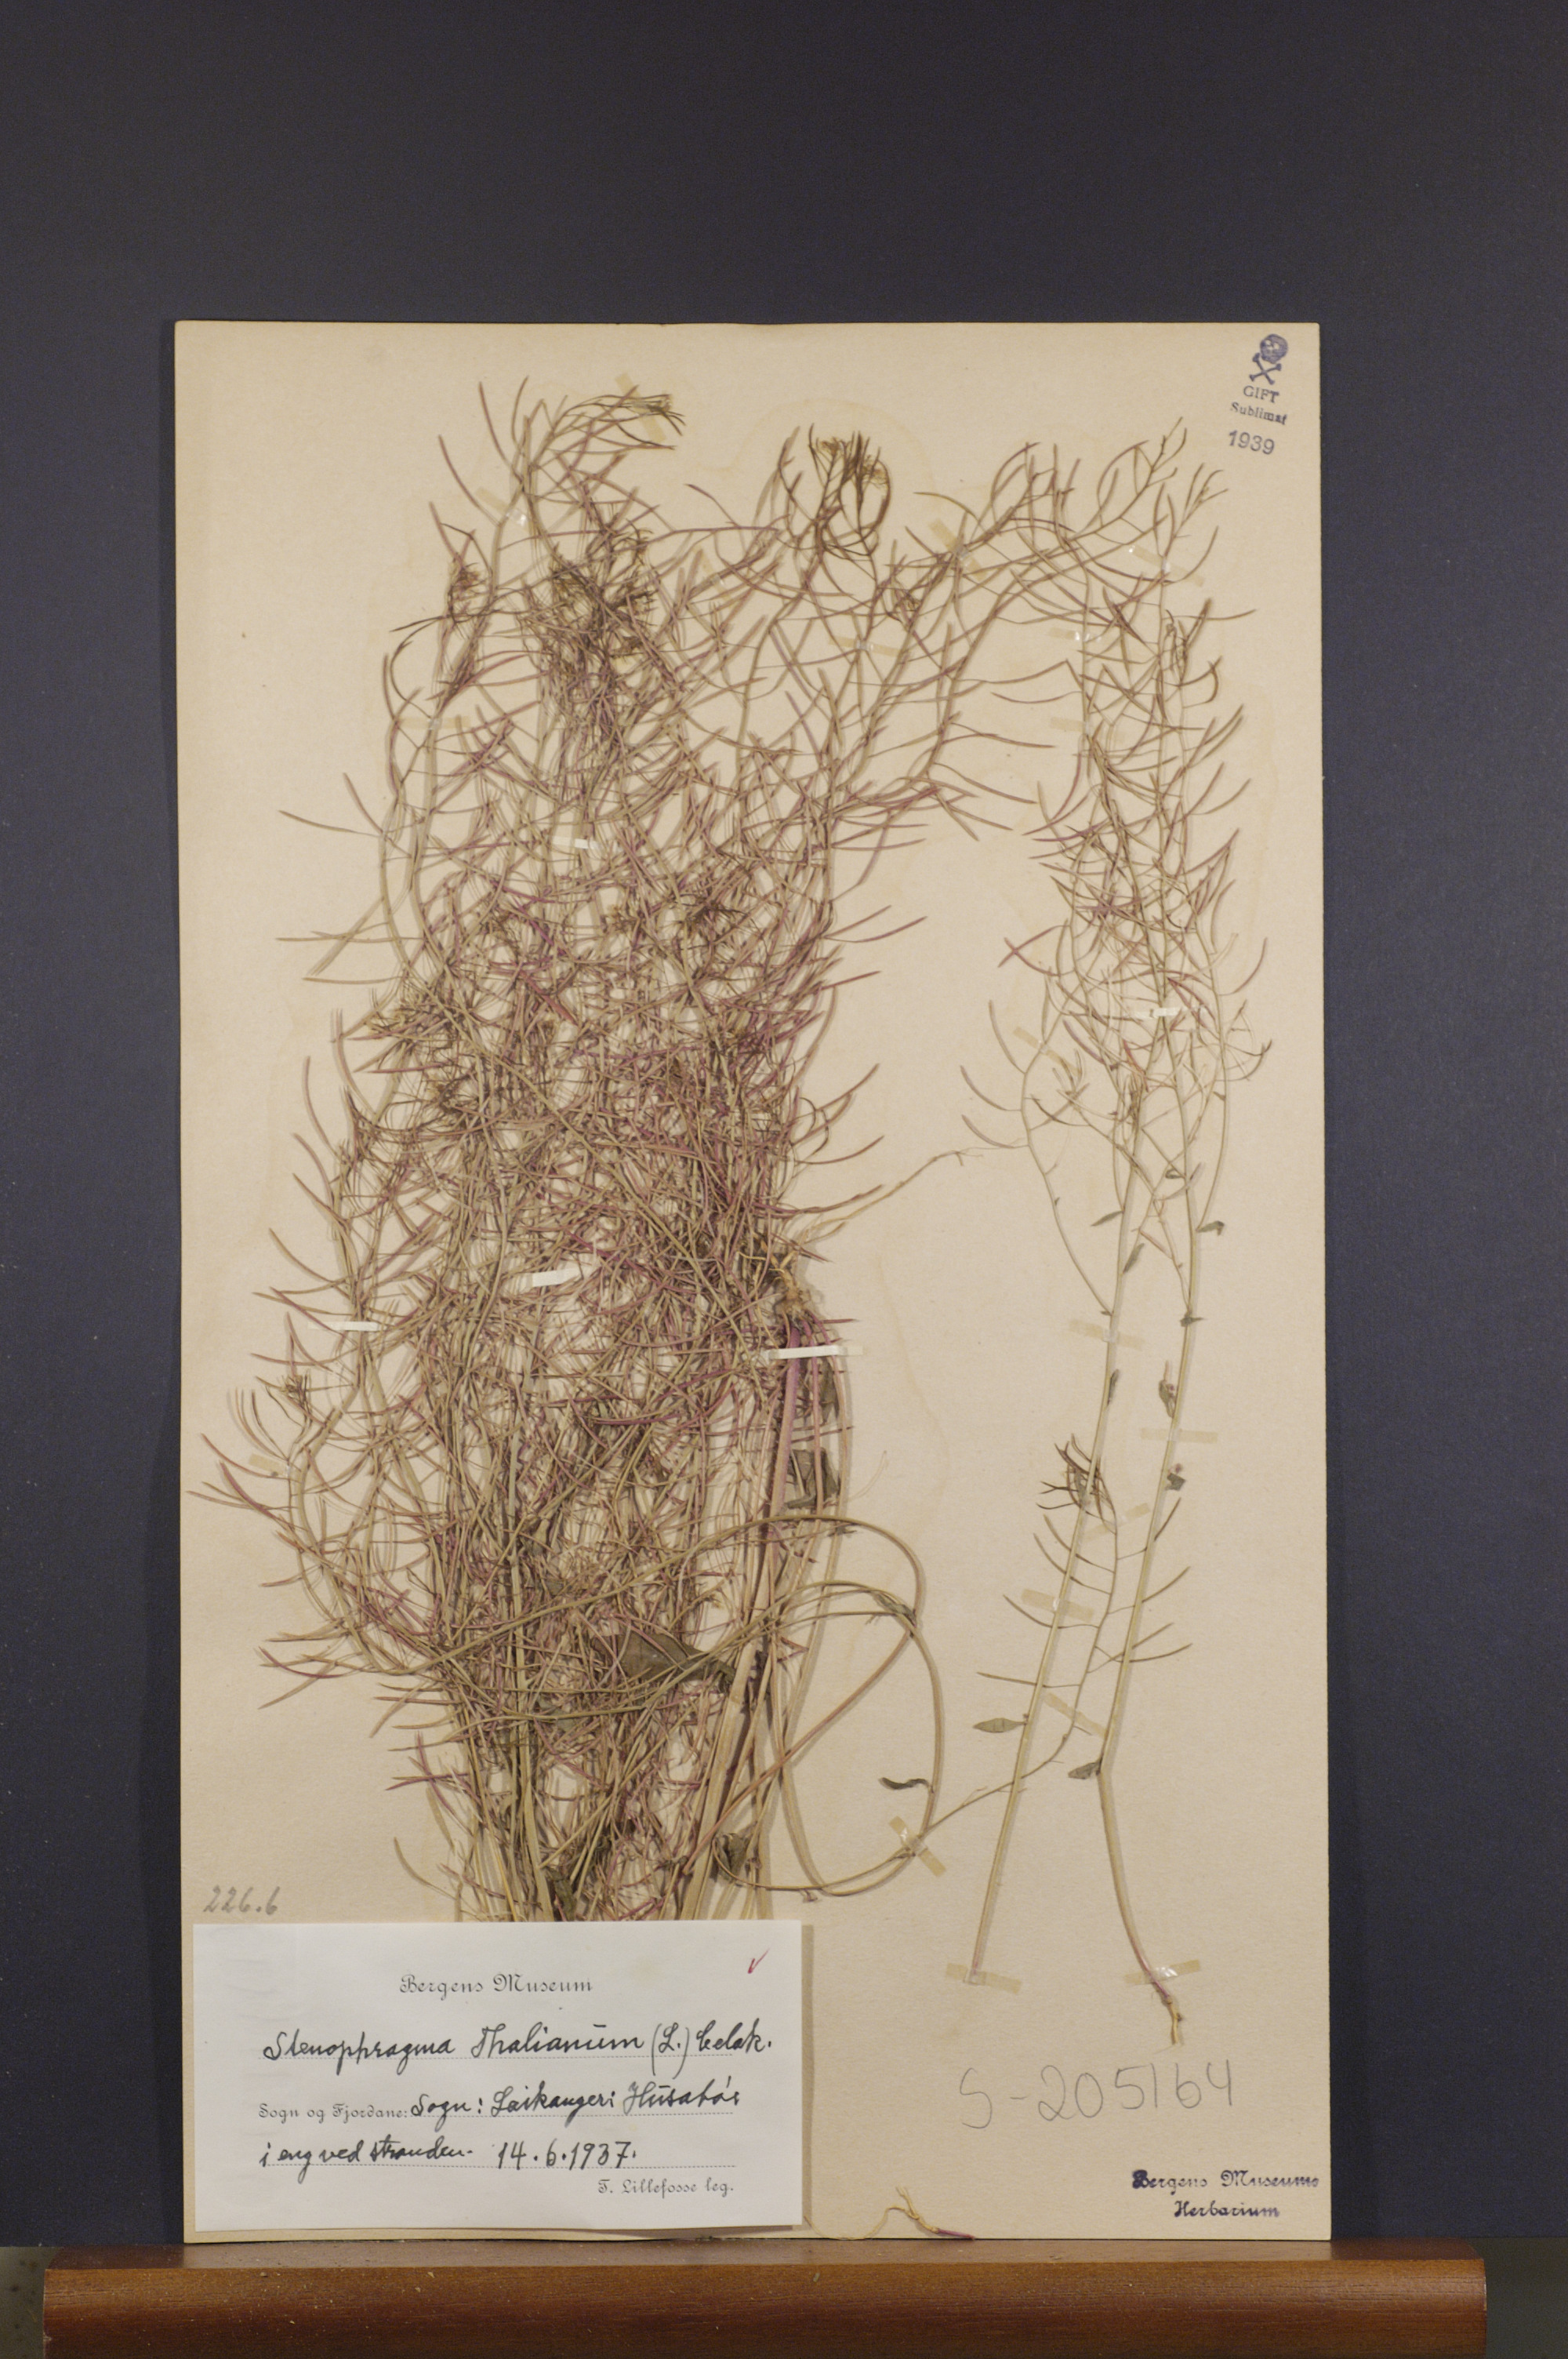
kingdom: Plantae
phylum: Tracheophyta
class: Magnoliopsida
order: Brassicales
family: Brassicaceae
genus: Arabidopsis
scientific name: Arabidopsis thaliana
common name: Thale cress
